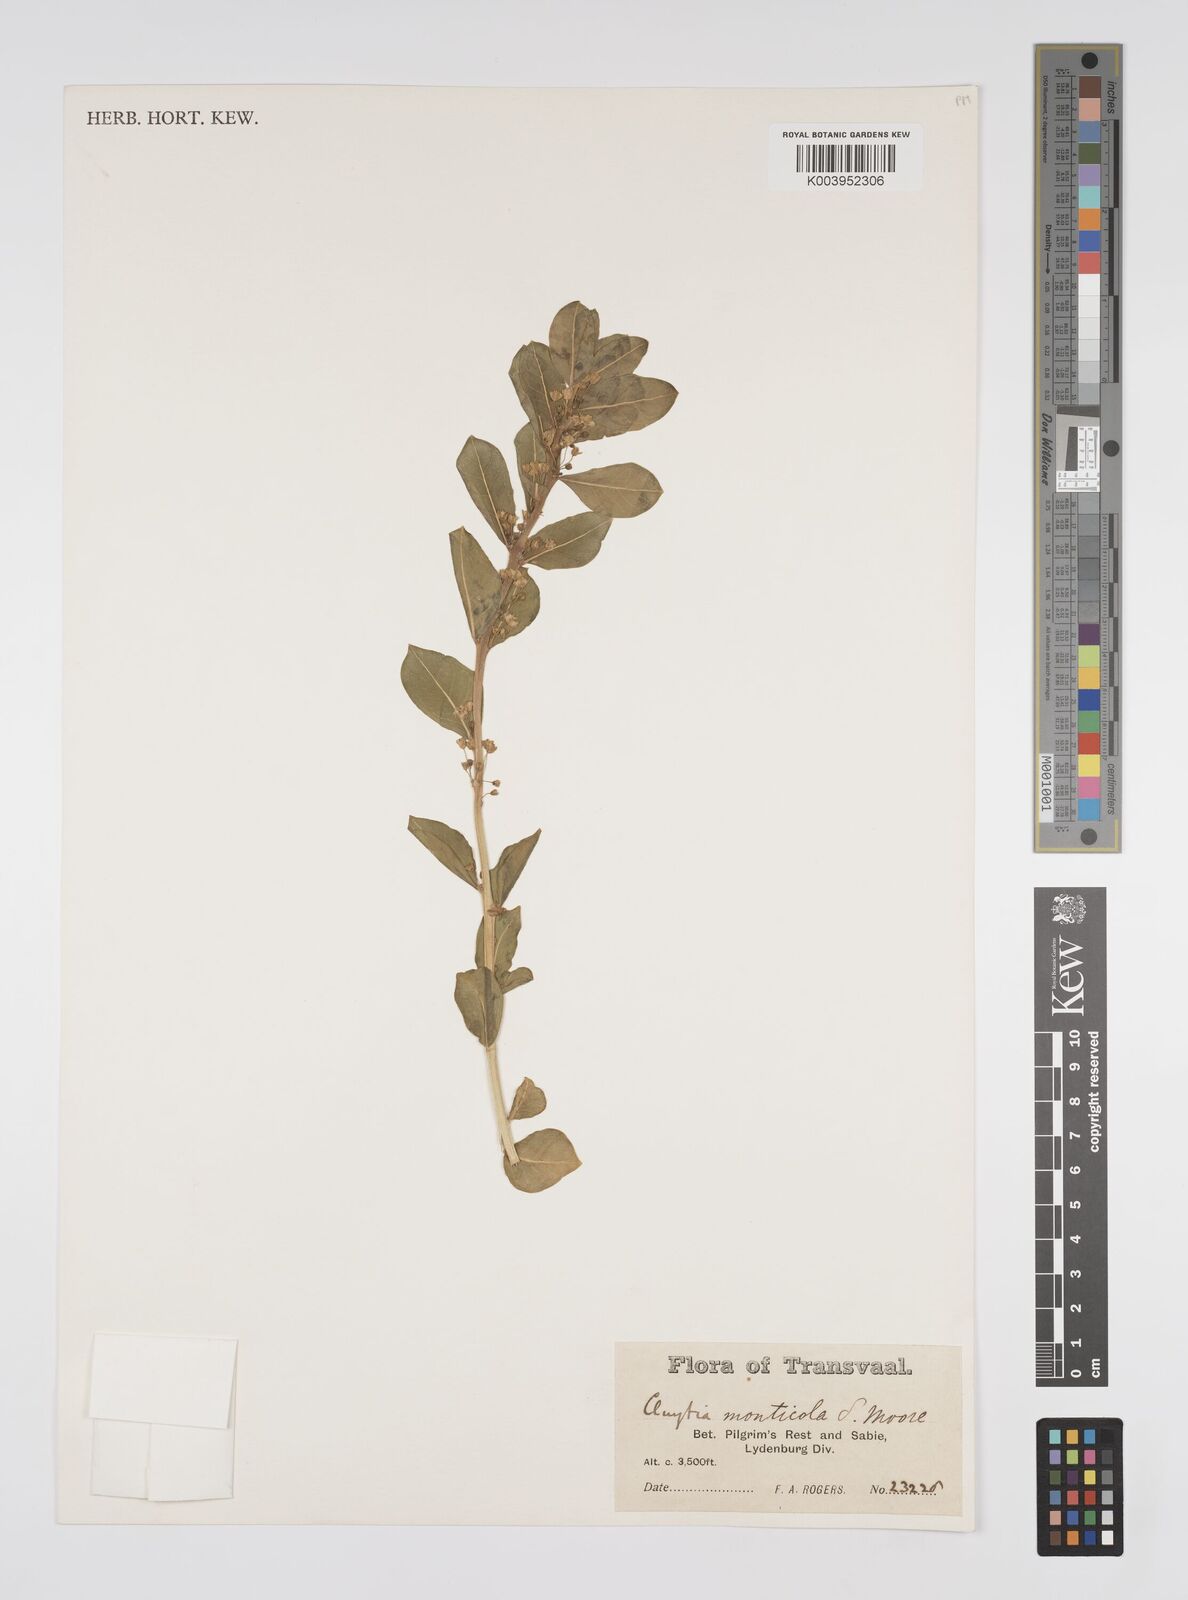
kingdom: Plantae
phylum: Tracheophyta
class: Magnoliopsida
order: Malpighiales
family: Peraceae
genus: Clutia
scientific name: Clutia
